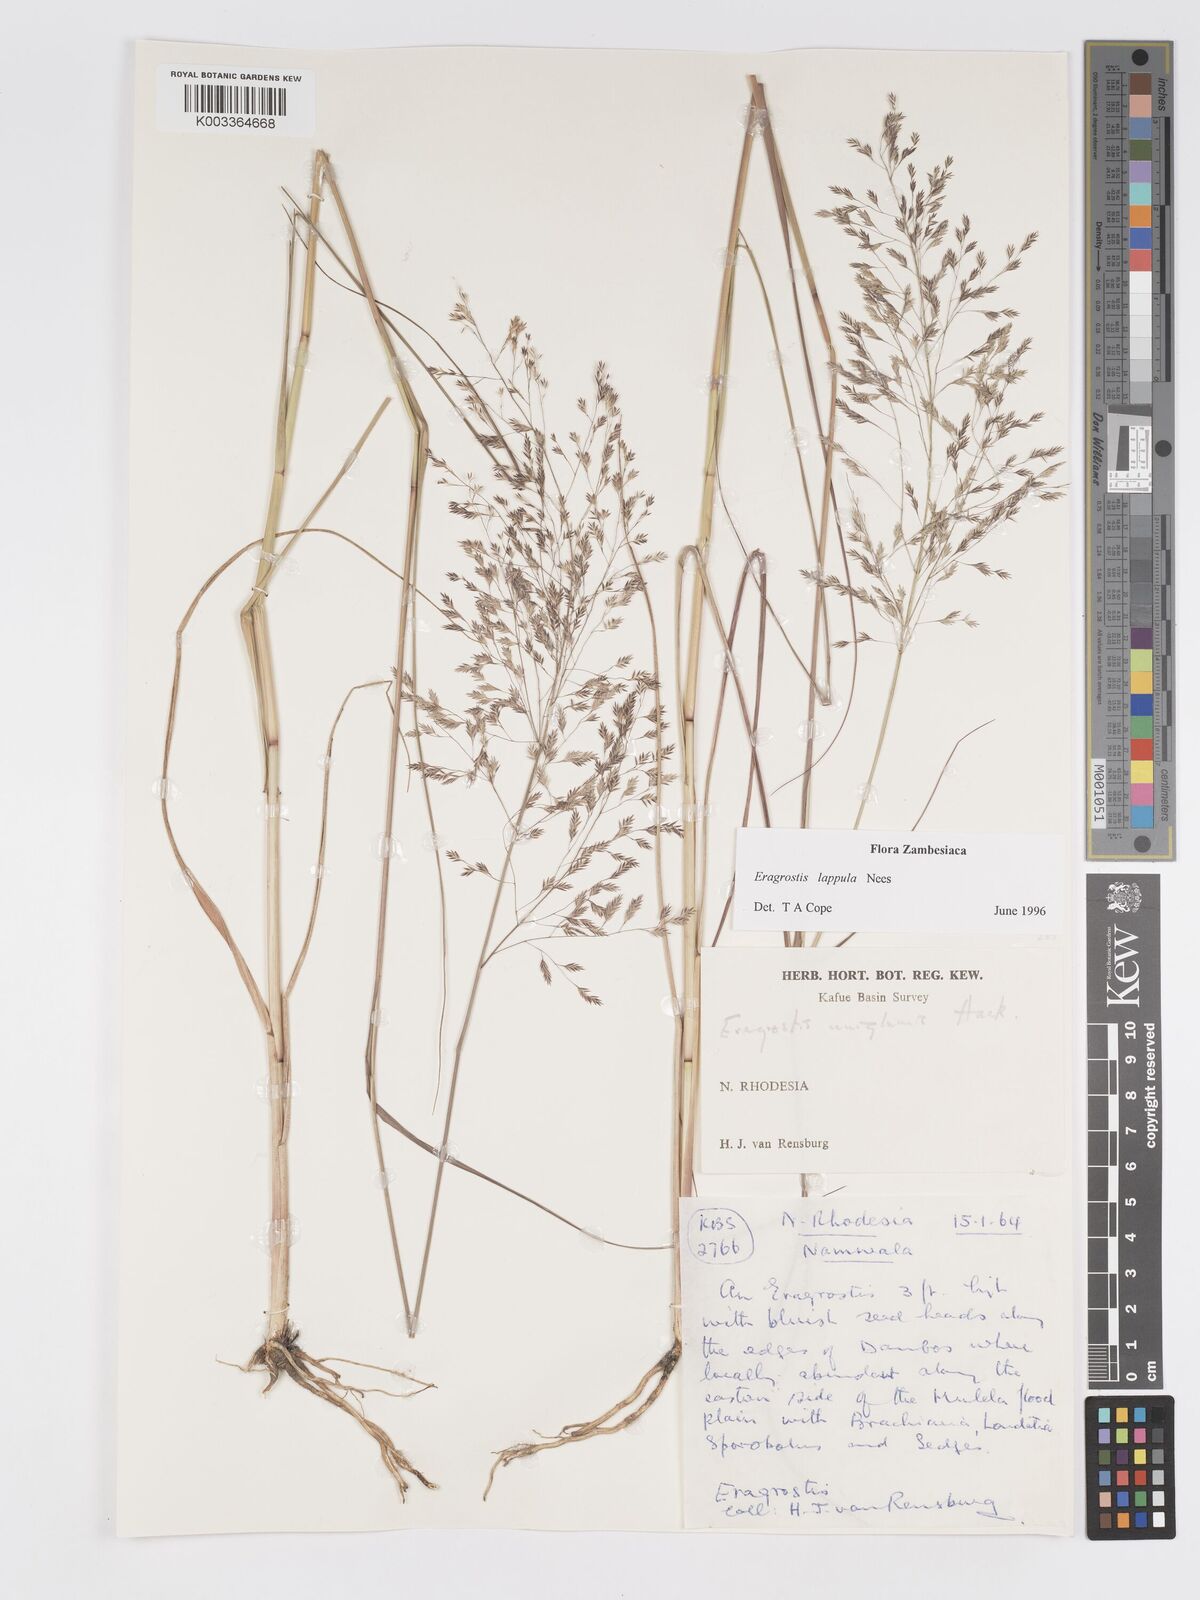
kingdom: Plantae
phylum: Tracheophyta
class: Liliopsida
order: Poales
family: Poaceae
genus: Eragrostis
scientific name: Eragrostis lappula
